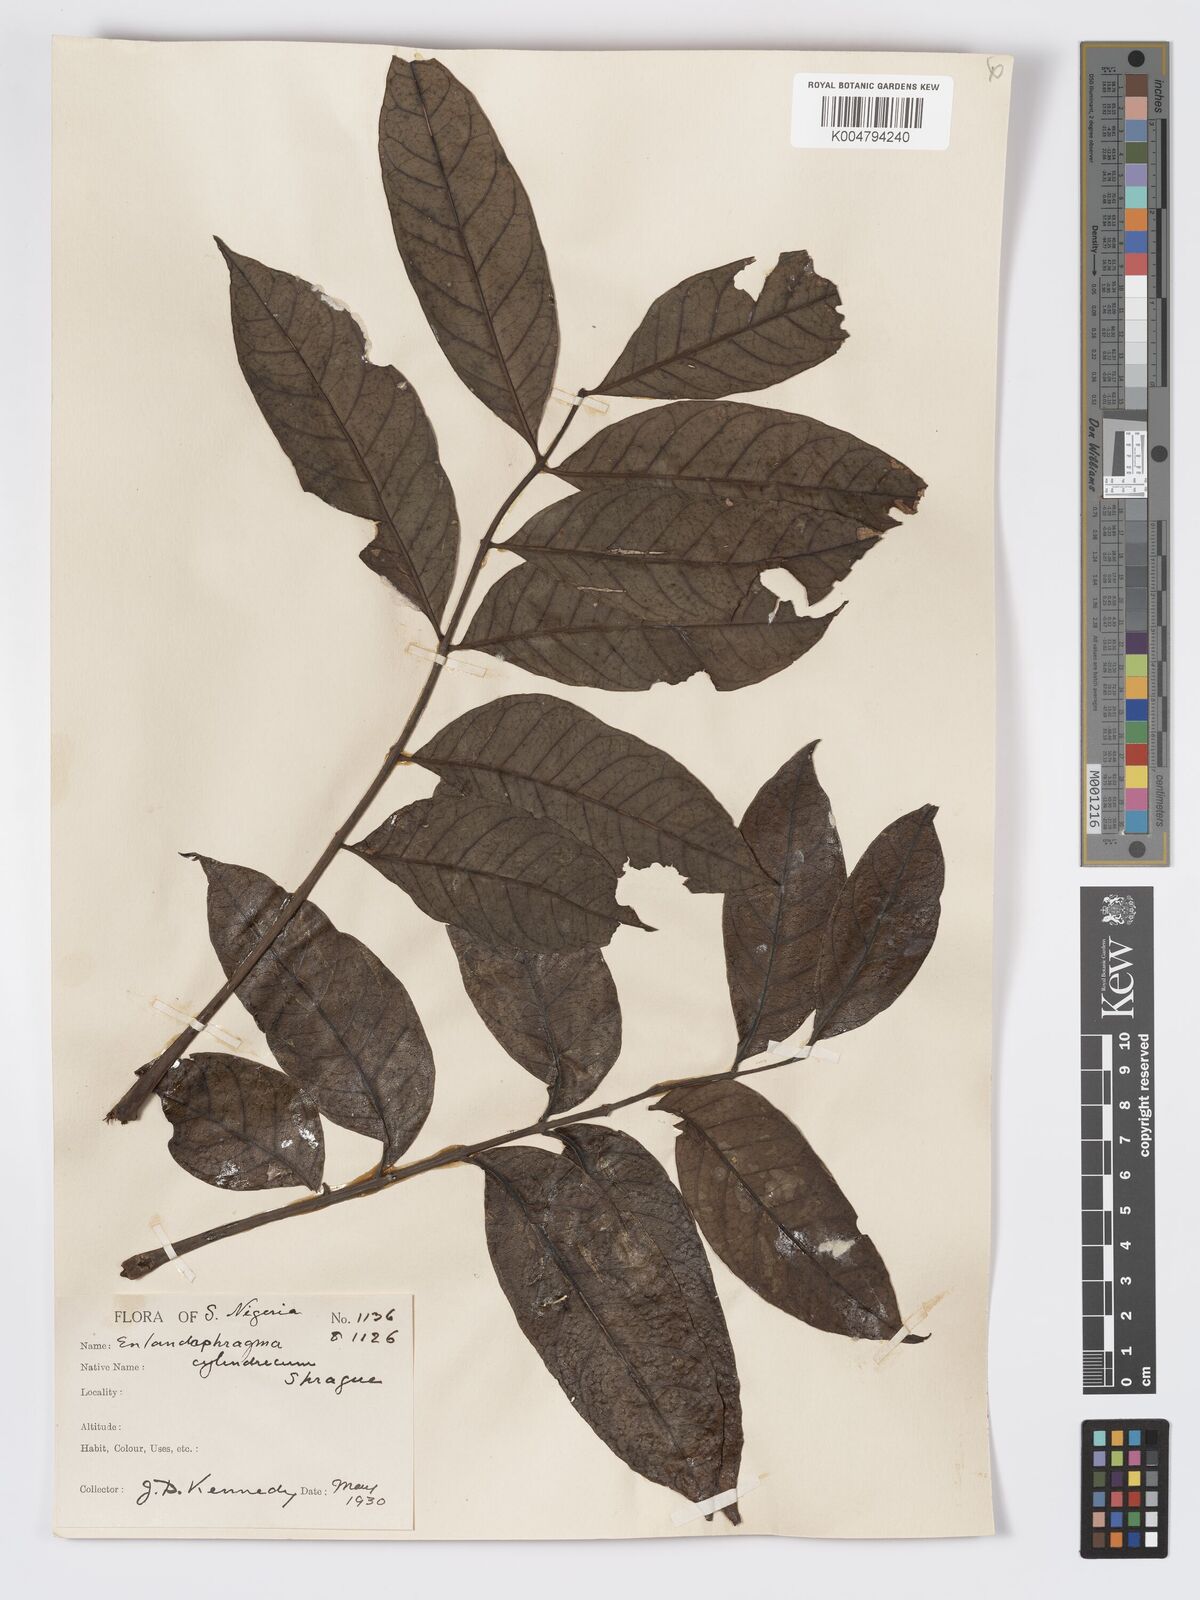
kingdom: Plantae
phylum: Tracheophyta
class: Magnoliopsida
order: Sapindales
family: Meliaceae
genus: Entandrophragma
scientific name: Entandrophragma cylindricum
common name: Sapele
